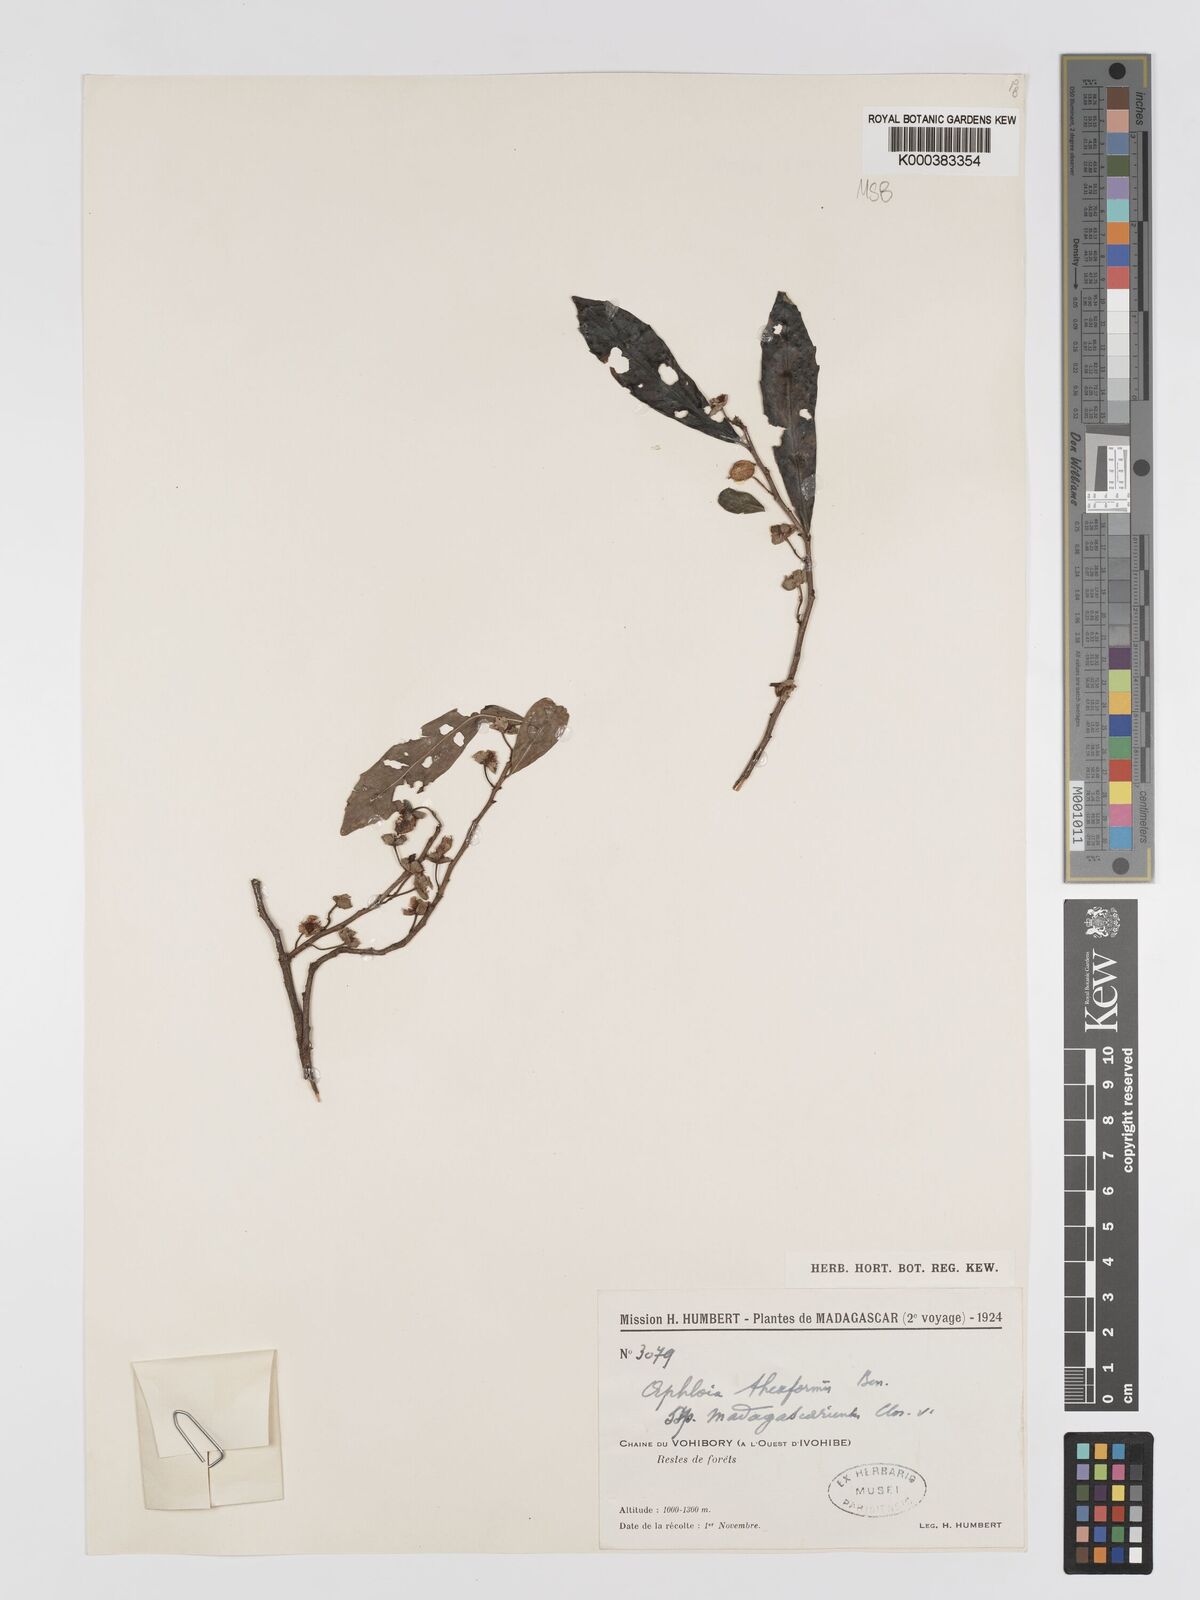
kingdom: Plantae
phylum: Tracheophyta
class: Magnoliopsida
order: Crossosomatales
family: Aphloiaceae
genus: Aphloia
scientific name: Aphloia theiformis
